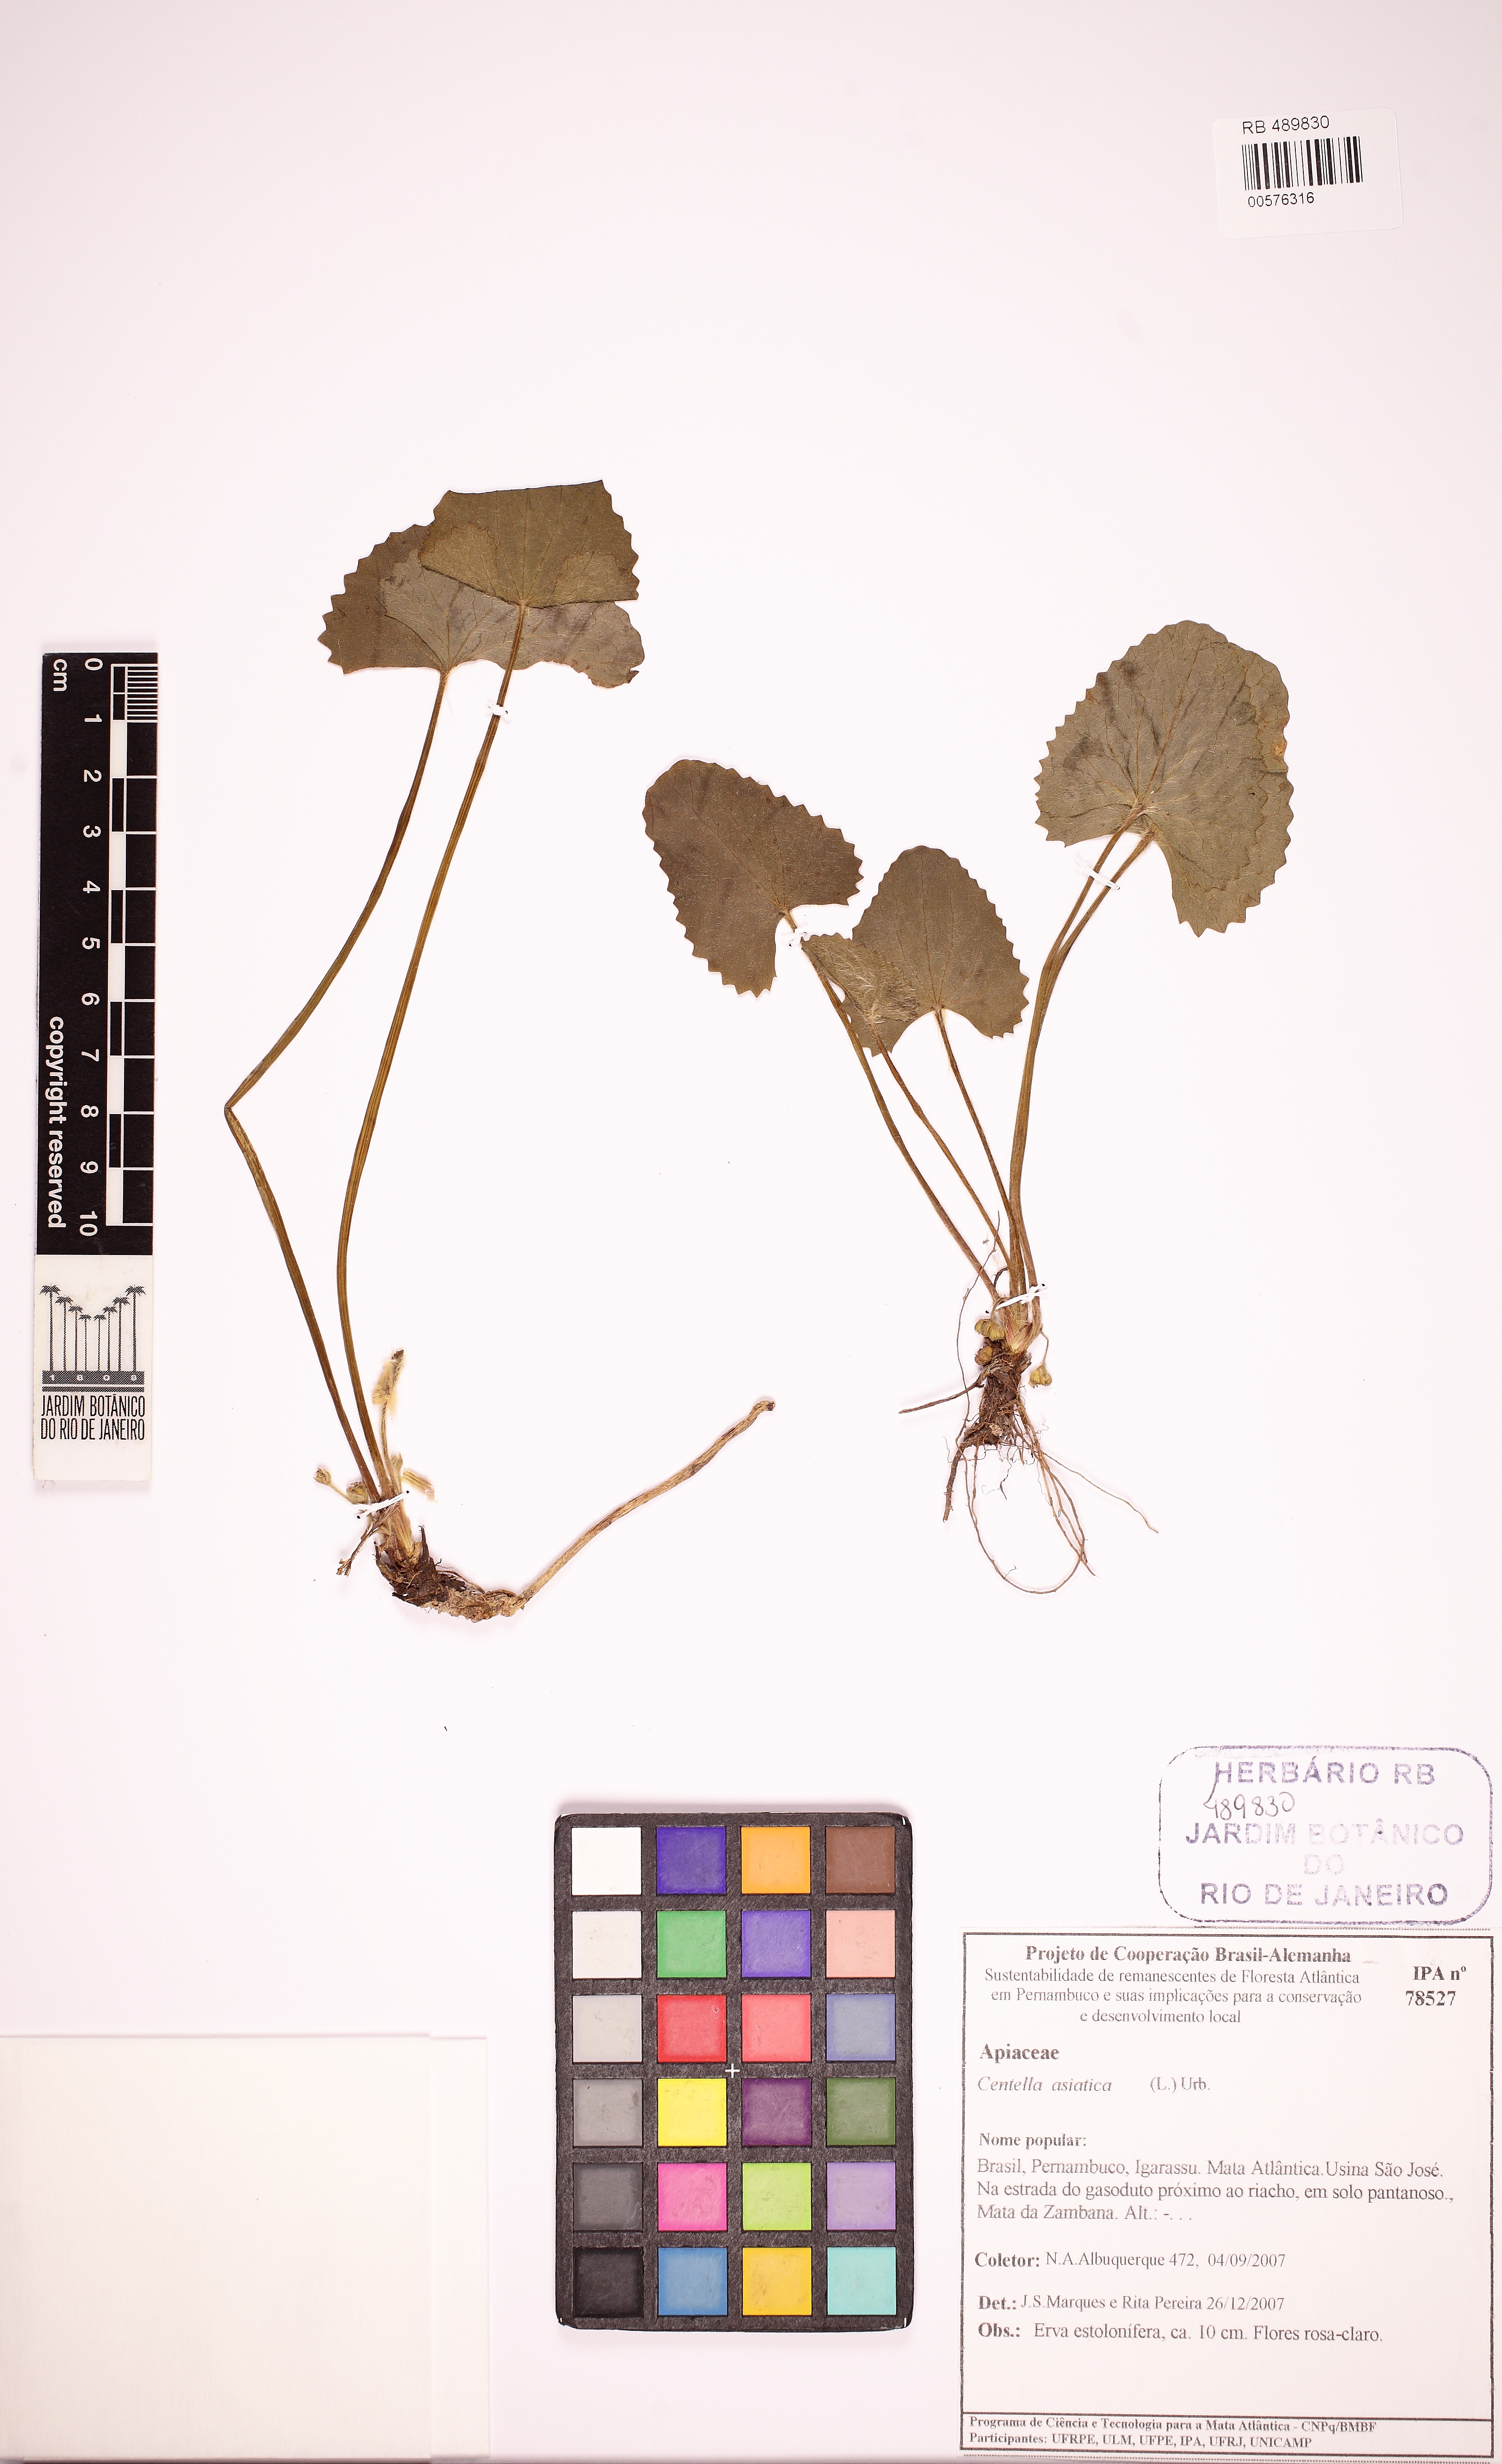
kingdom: Plantae
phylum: Tracheophyta
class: Magnoliopsida
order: Apiales
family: Apiaceae
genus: Centella
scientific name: Centella asiatica
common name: Spadeleaf
